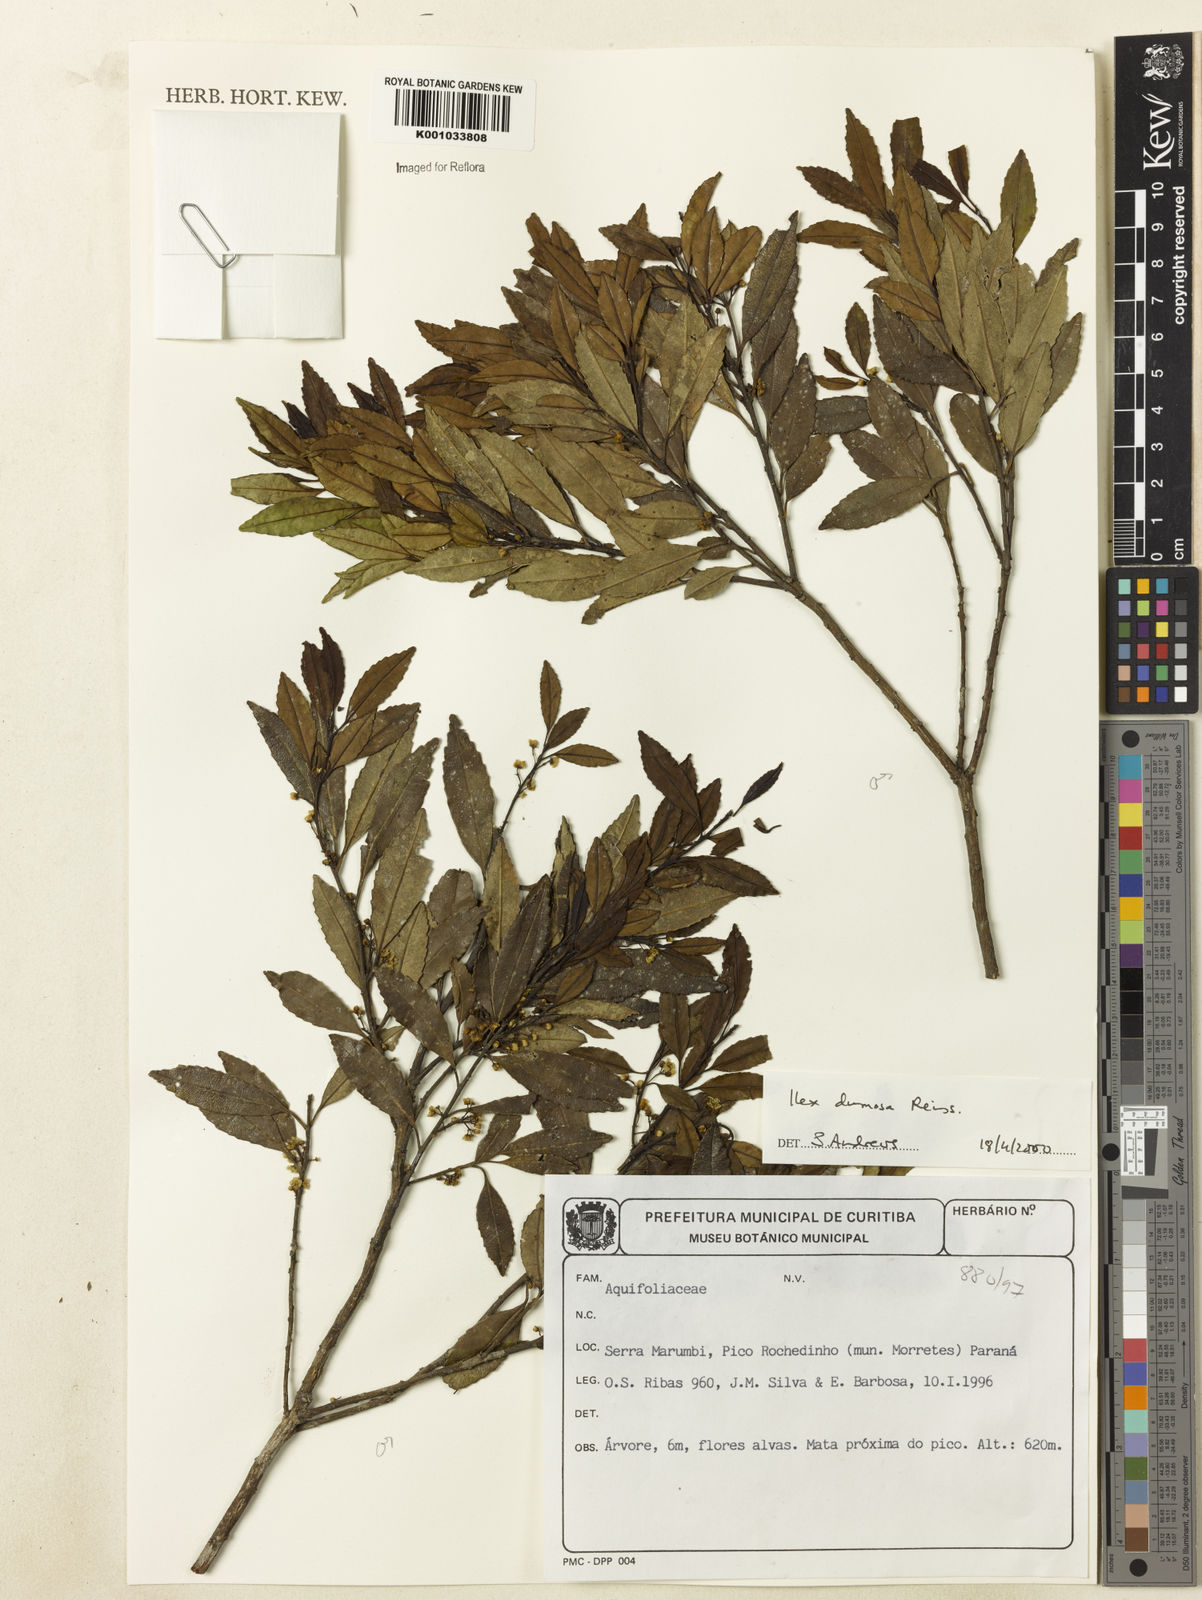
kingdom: Plantae
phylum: Tracheophyta
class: Magnoliopsida
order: Aquifoliales
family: Aquifoliaceae
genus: Ilex
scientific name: Ilex dumosa
